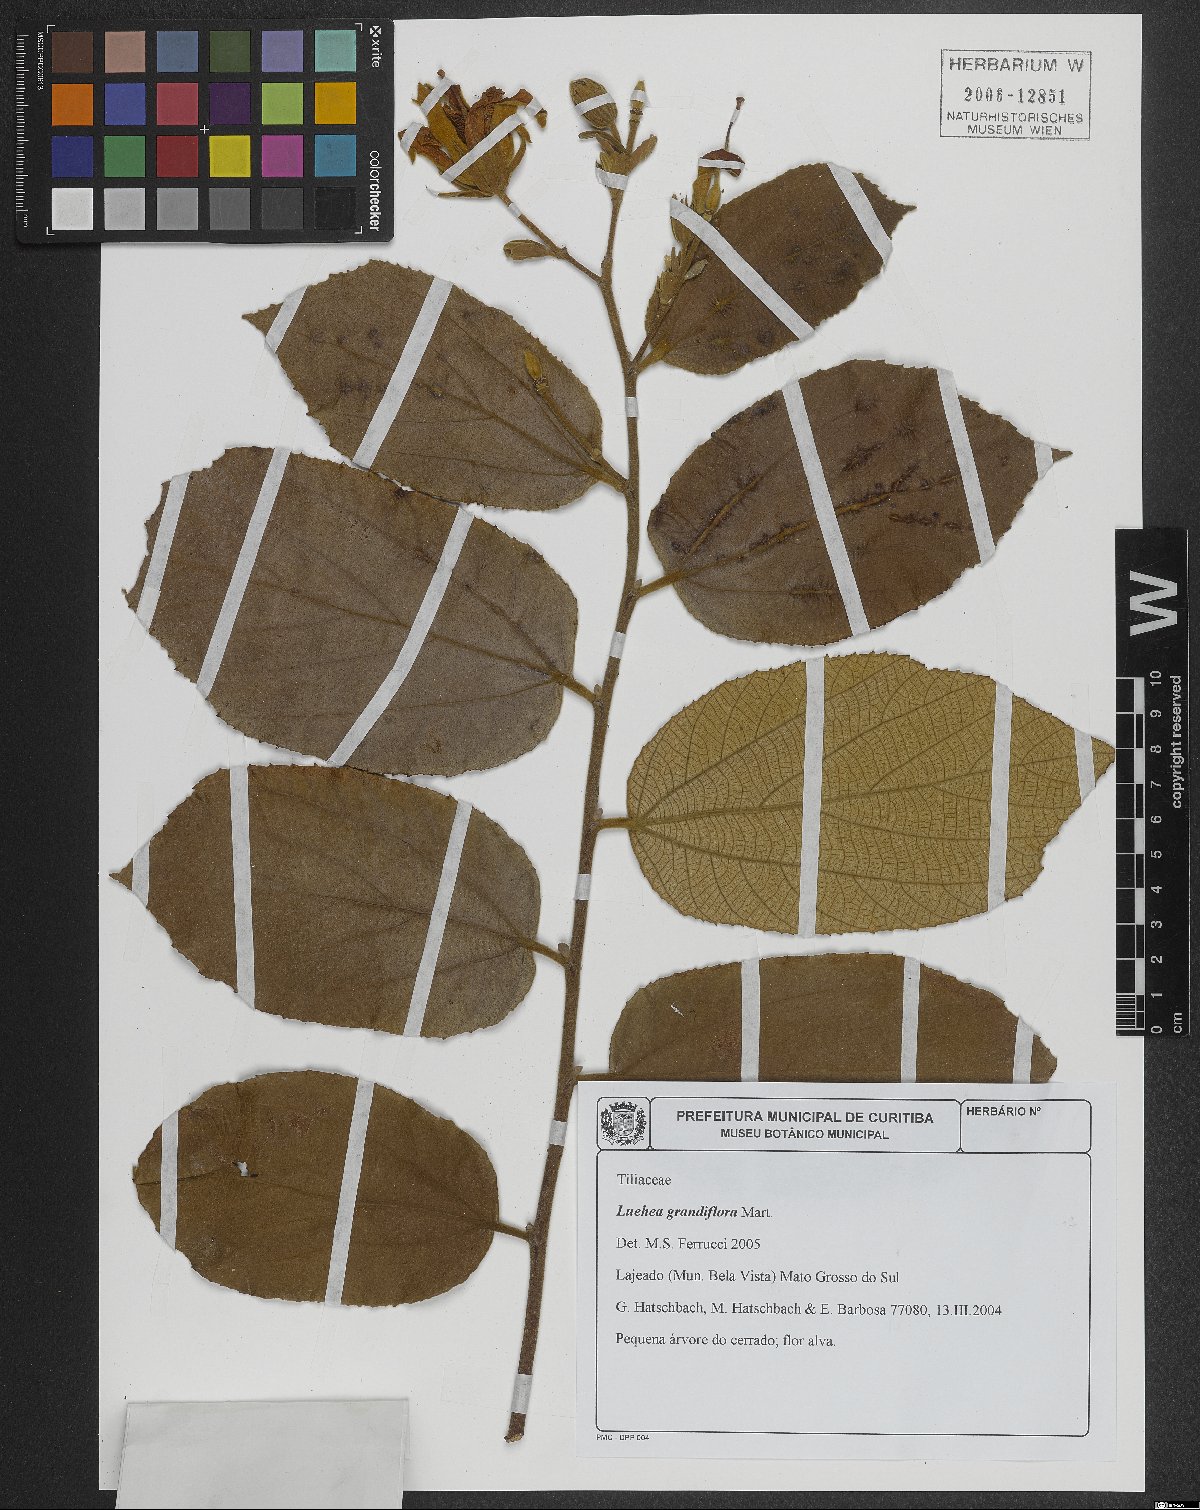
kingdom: Plantae
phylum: Tracheophyta
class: Magnoliopsida
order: Malvales
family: Malvaceae
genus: Luehea
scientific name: Luehea grandiflora
